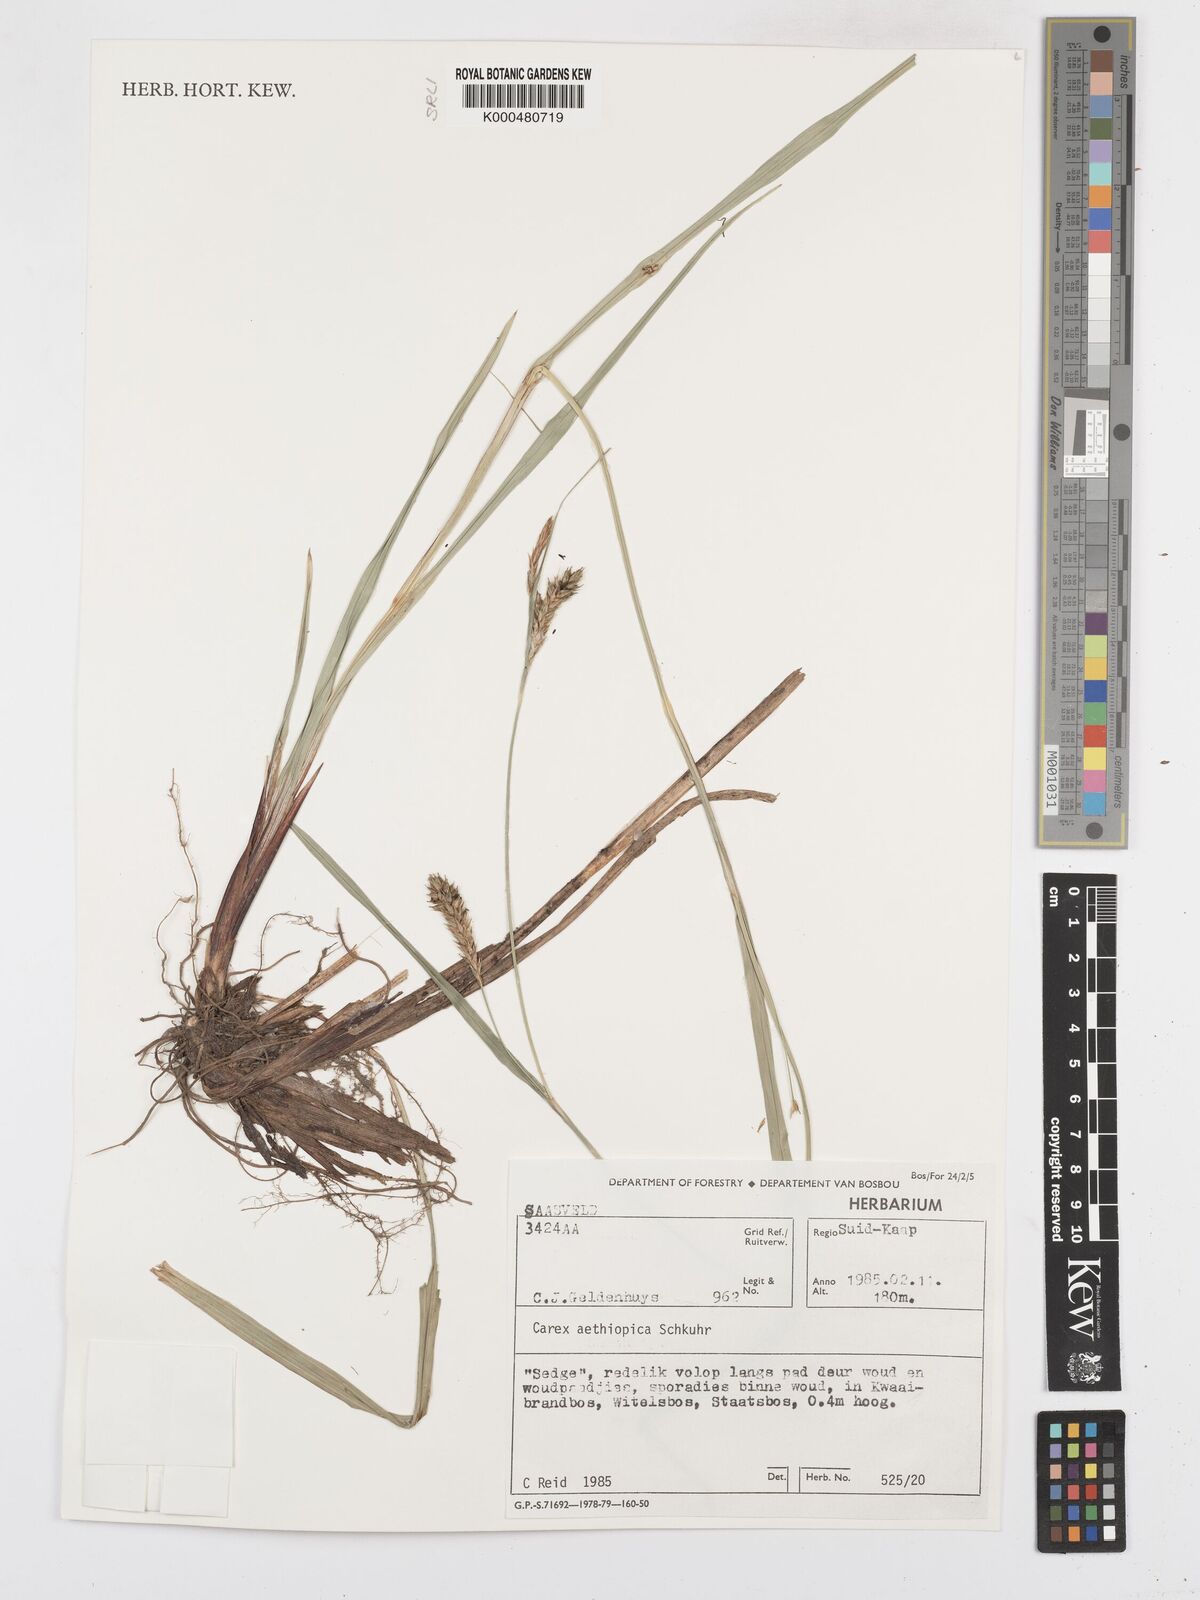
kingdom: Plantae
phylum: Tracheophyta
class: Liliopsida
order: Poales
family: Cyperaceae
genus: Carex
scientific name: Carex aethiopica
